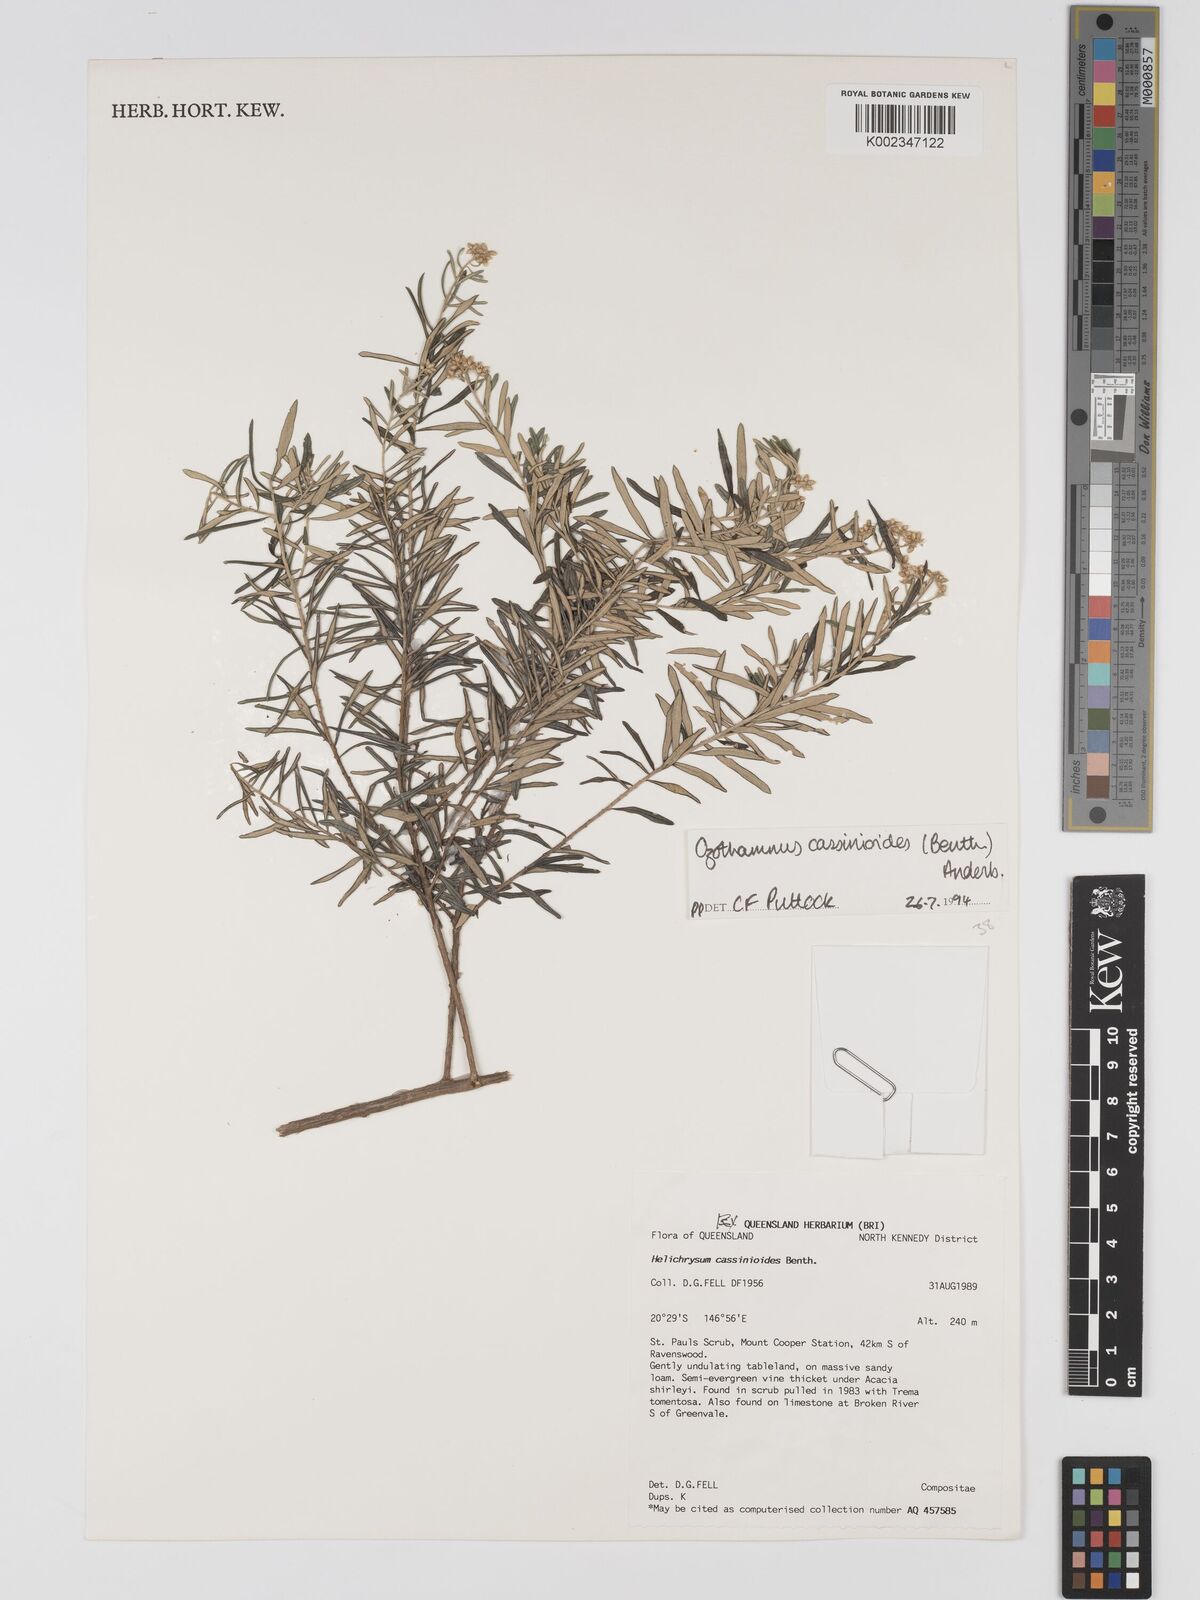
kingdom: Plantae
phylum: Tracheophyta
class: Magnoliopsida
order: Asterales
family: Asteraceae
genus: Ozothamnus
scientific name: Ozothamnus cassinioides
